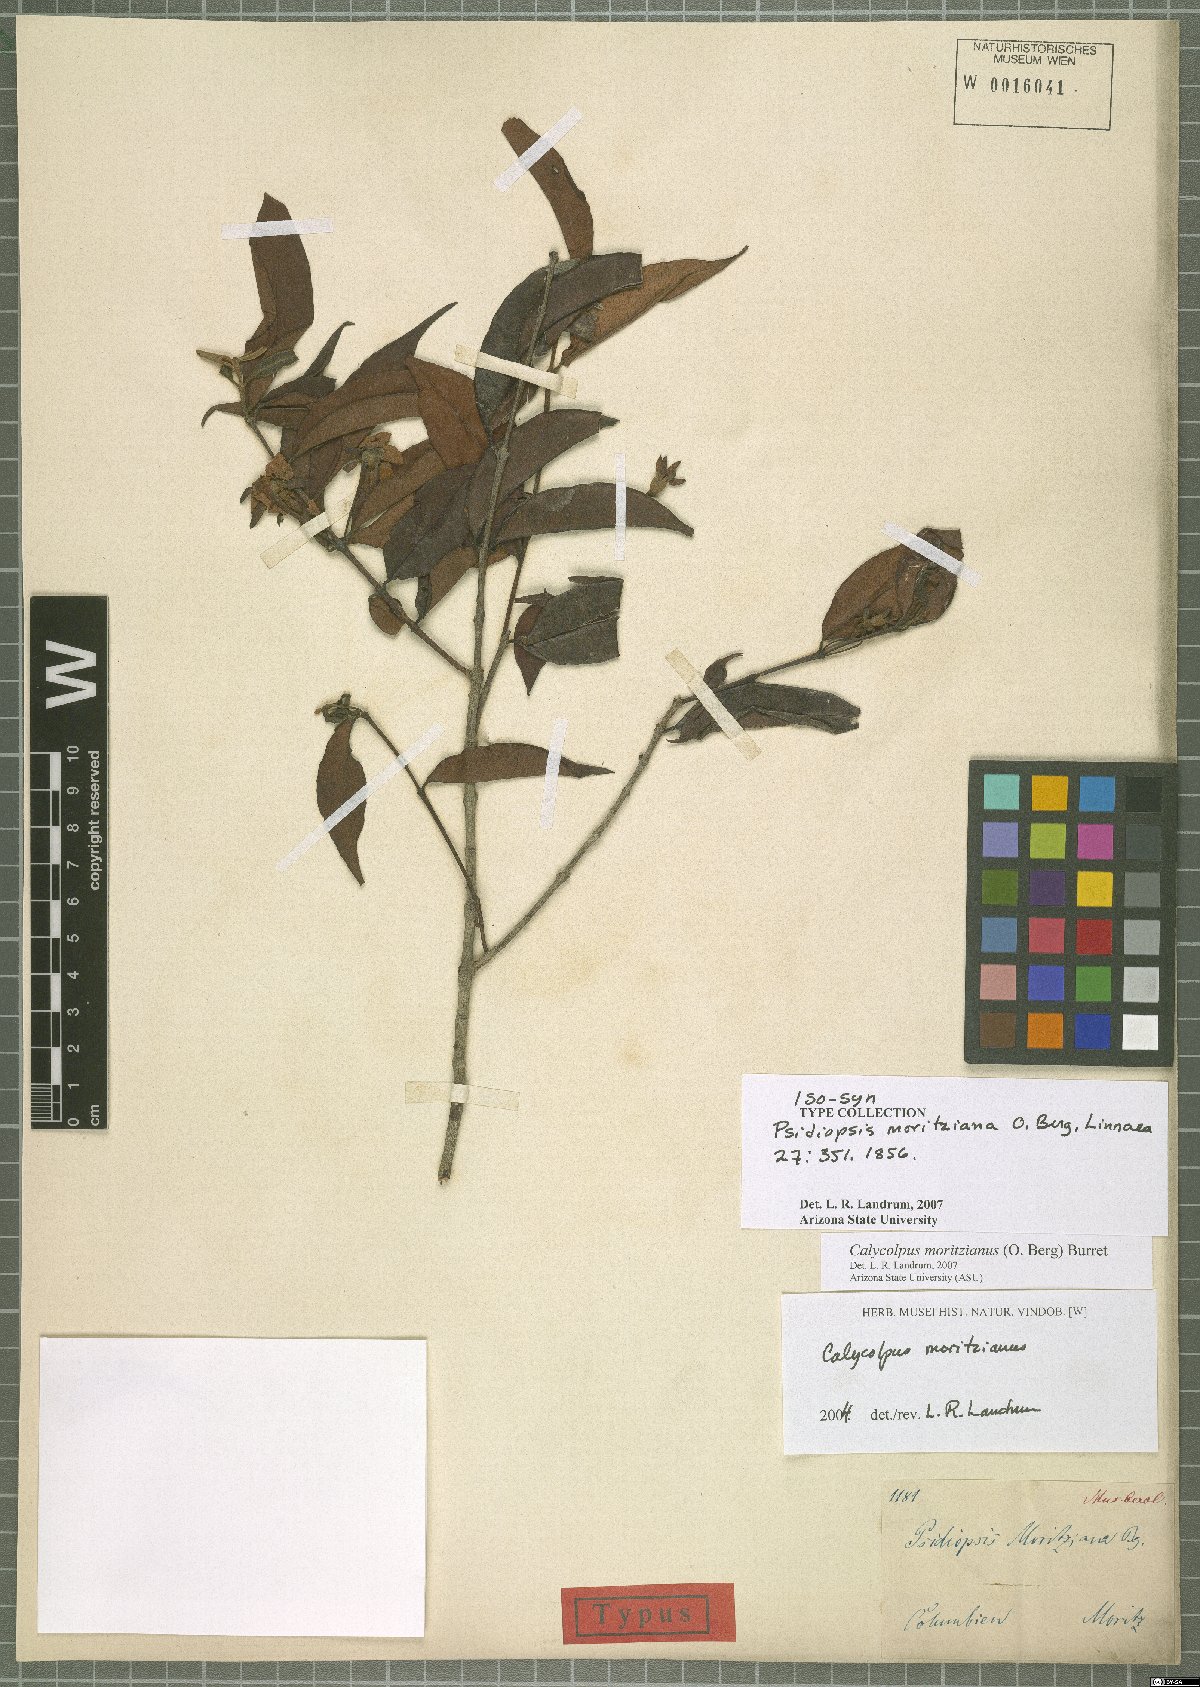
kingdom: Plantae
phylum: Tracheophyta
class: Magnoliopsida
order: Myrtales
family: Myrtaceae
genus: Calycolpus
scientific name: Calycolpus moritzianus
